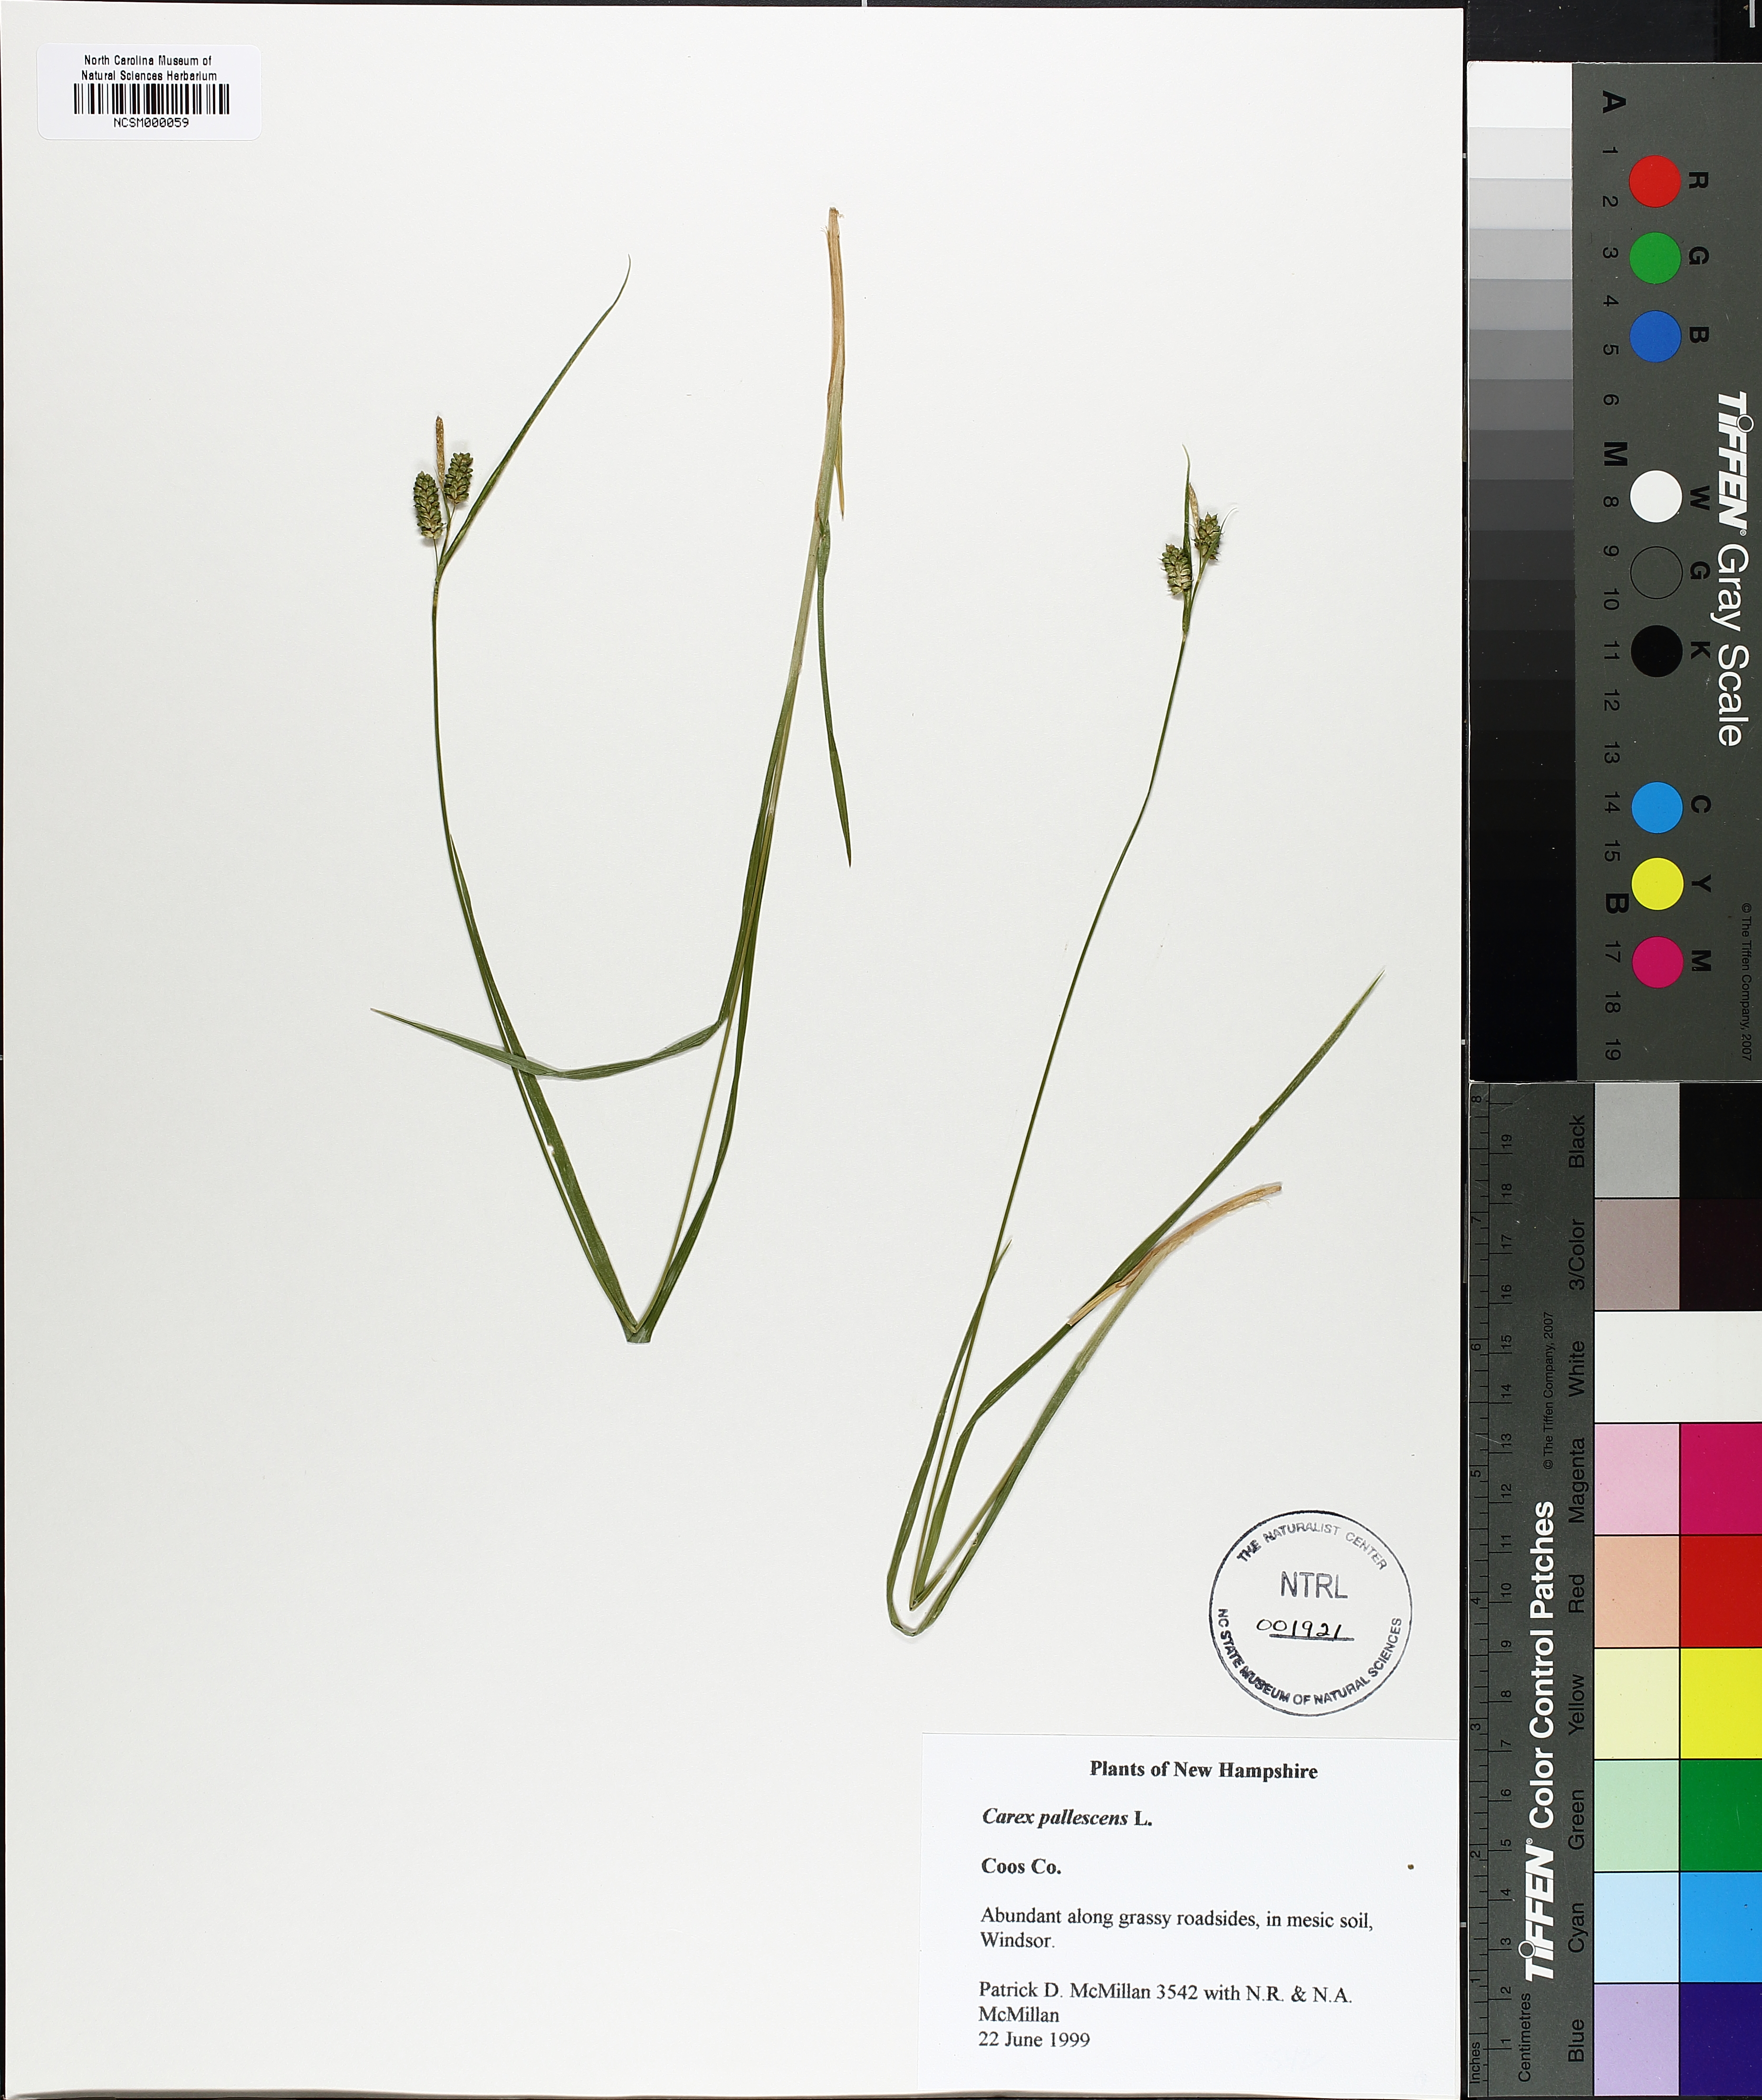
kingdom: Plantae
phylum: Tracheophyta
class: Liliopsida
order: Poales
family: Cyperaceae
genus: Carex
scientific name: Carex pallescens
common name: Pale sedge
